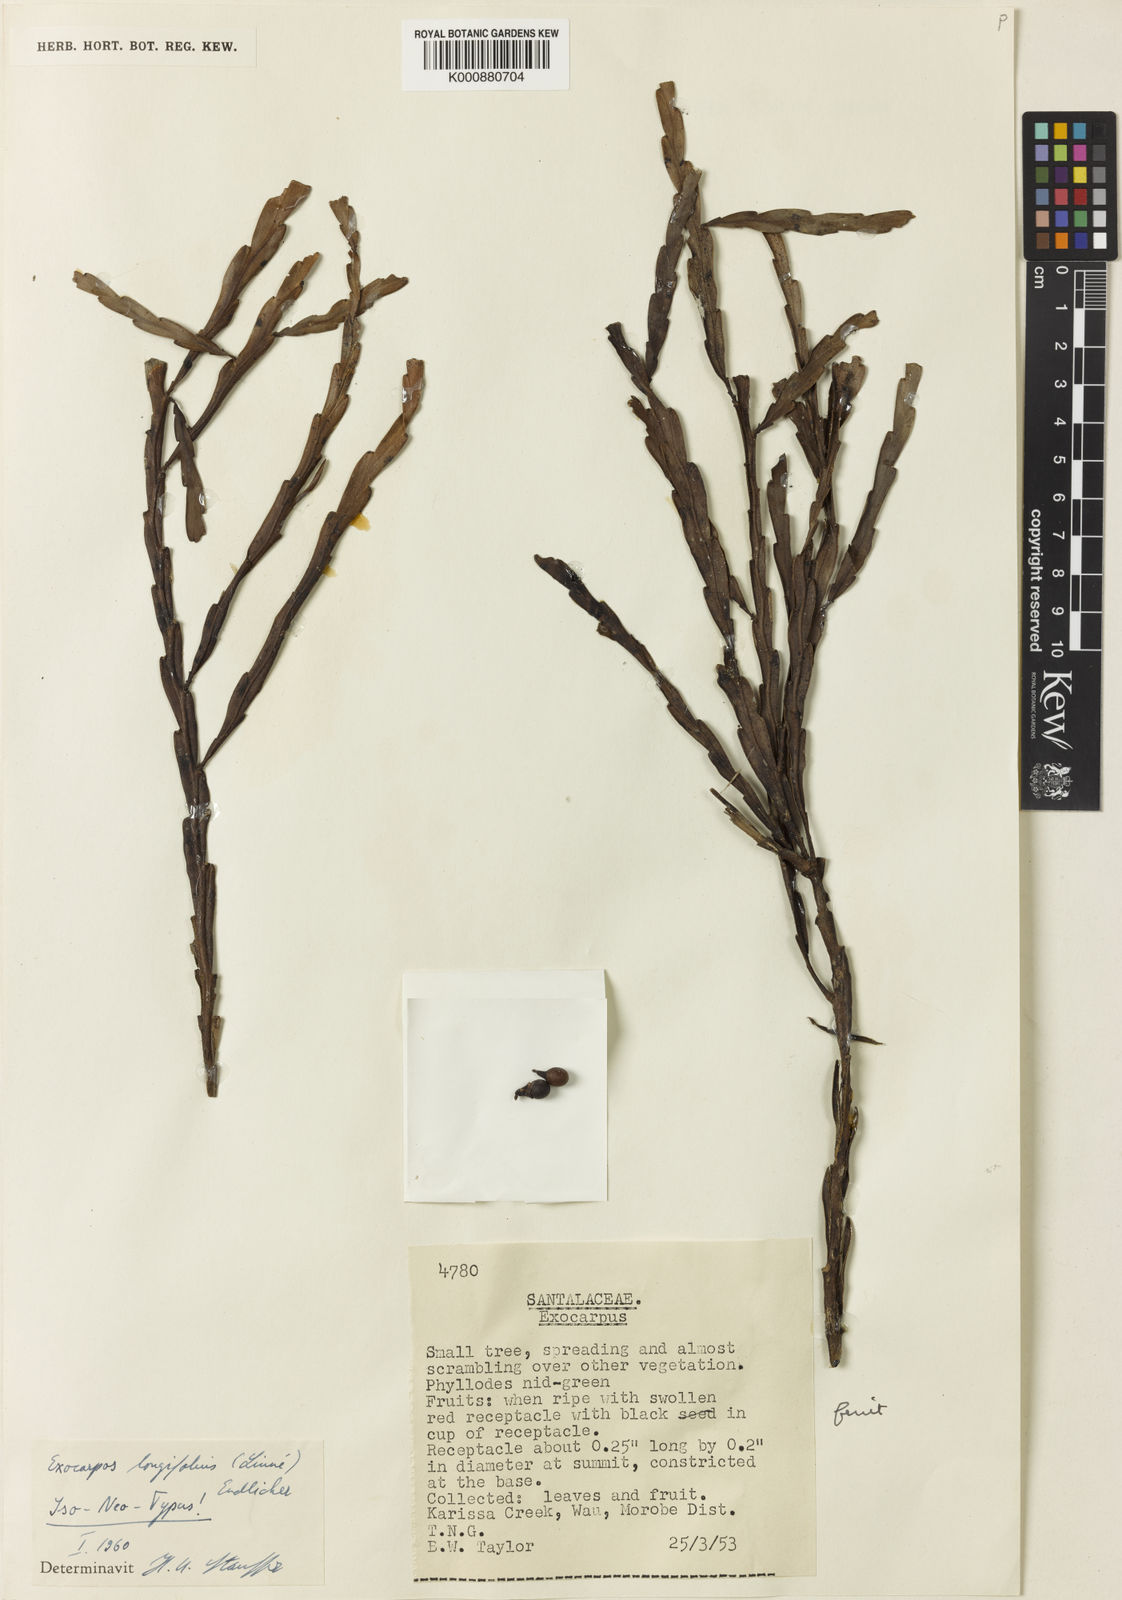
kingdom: Plantae
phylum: Tracheophyta
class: Magnoliopsida
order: Santalales
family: Santalaceae
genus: Exocarpos
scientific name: Exocarpos longifolius
